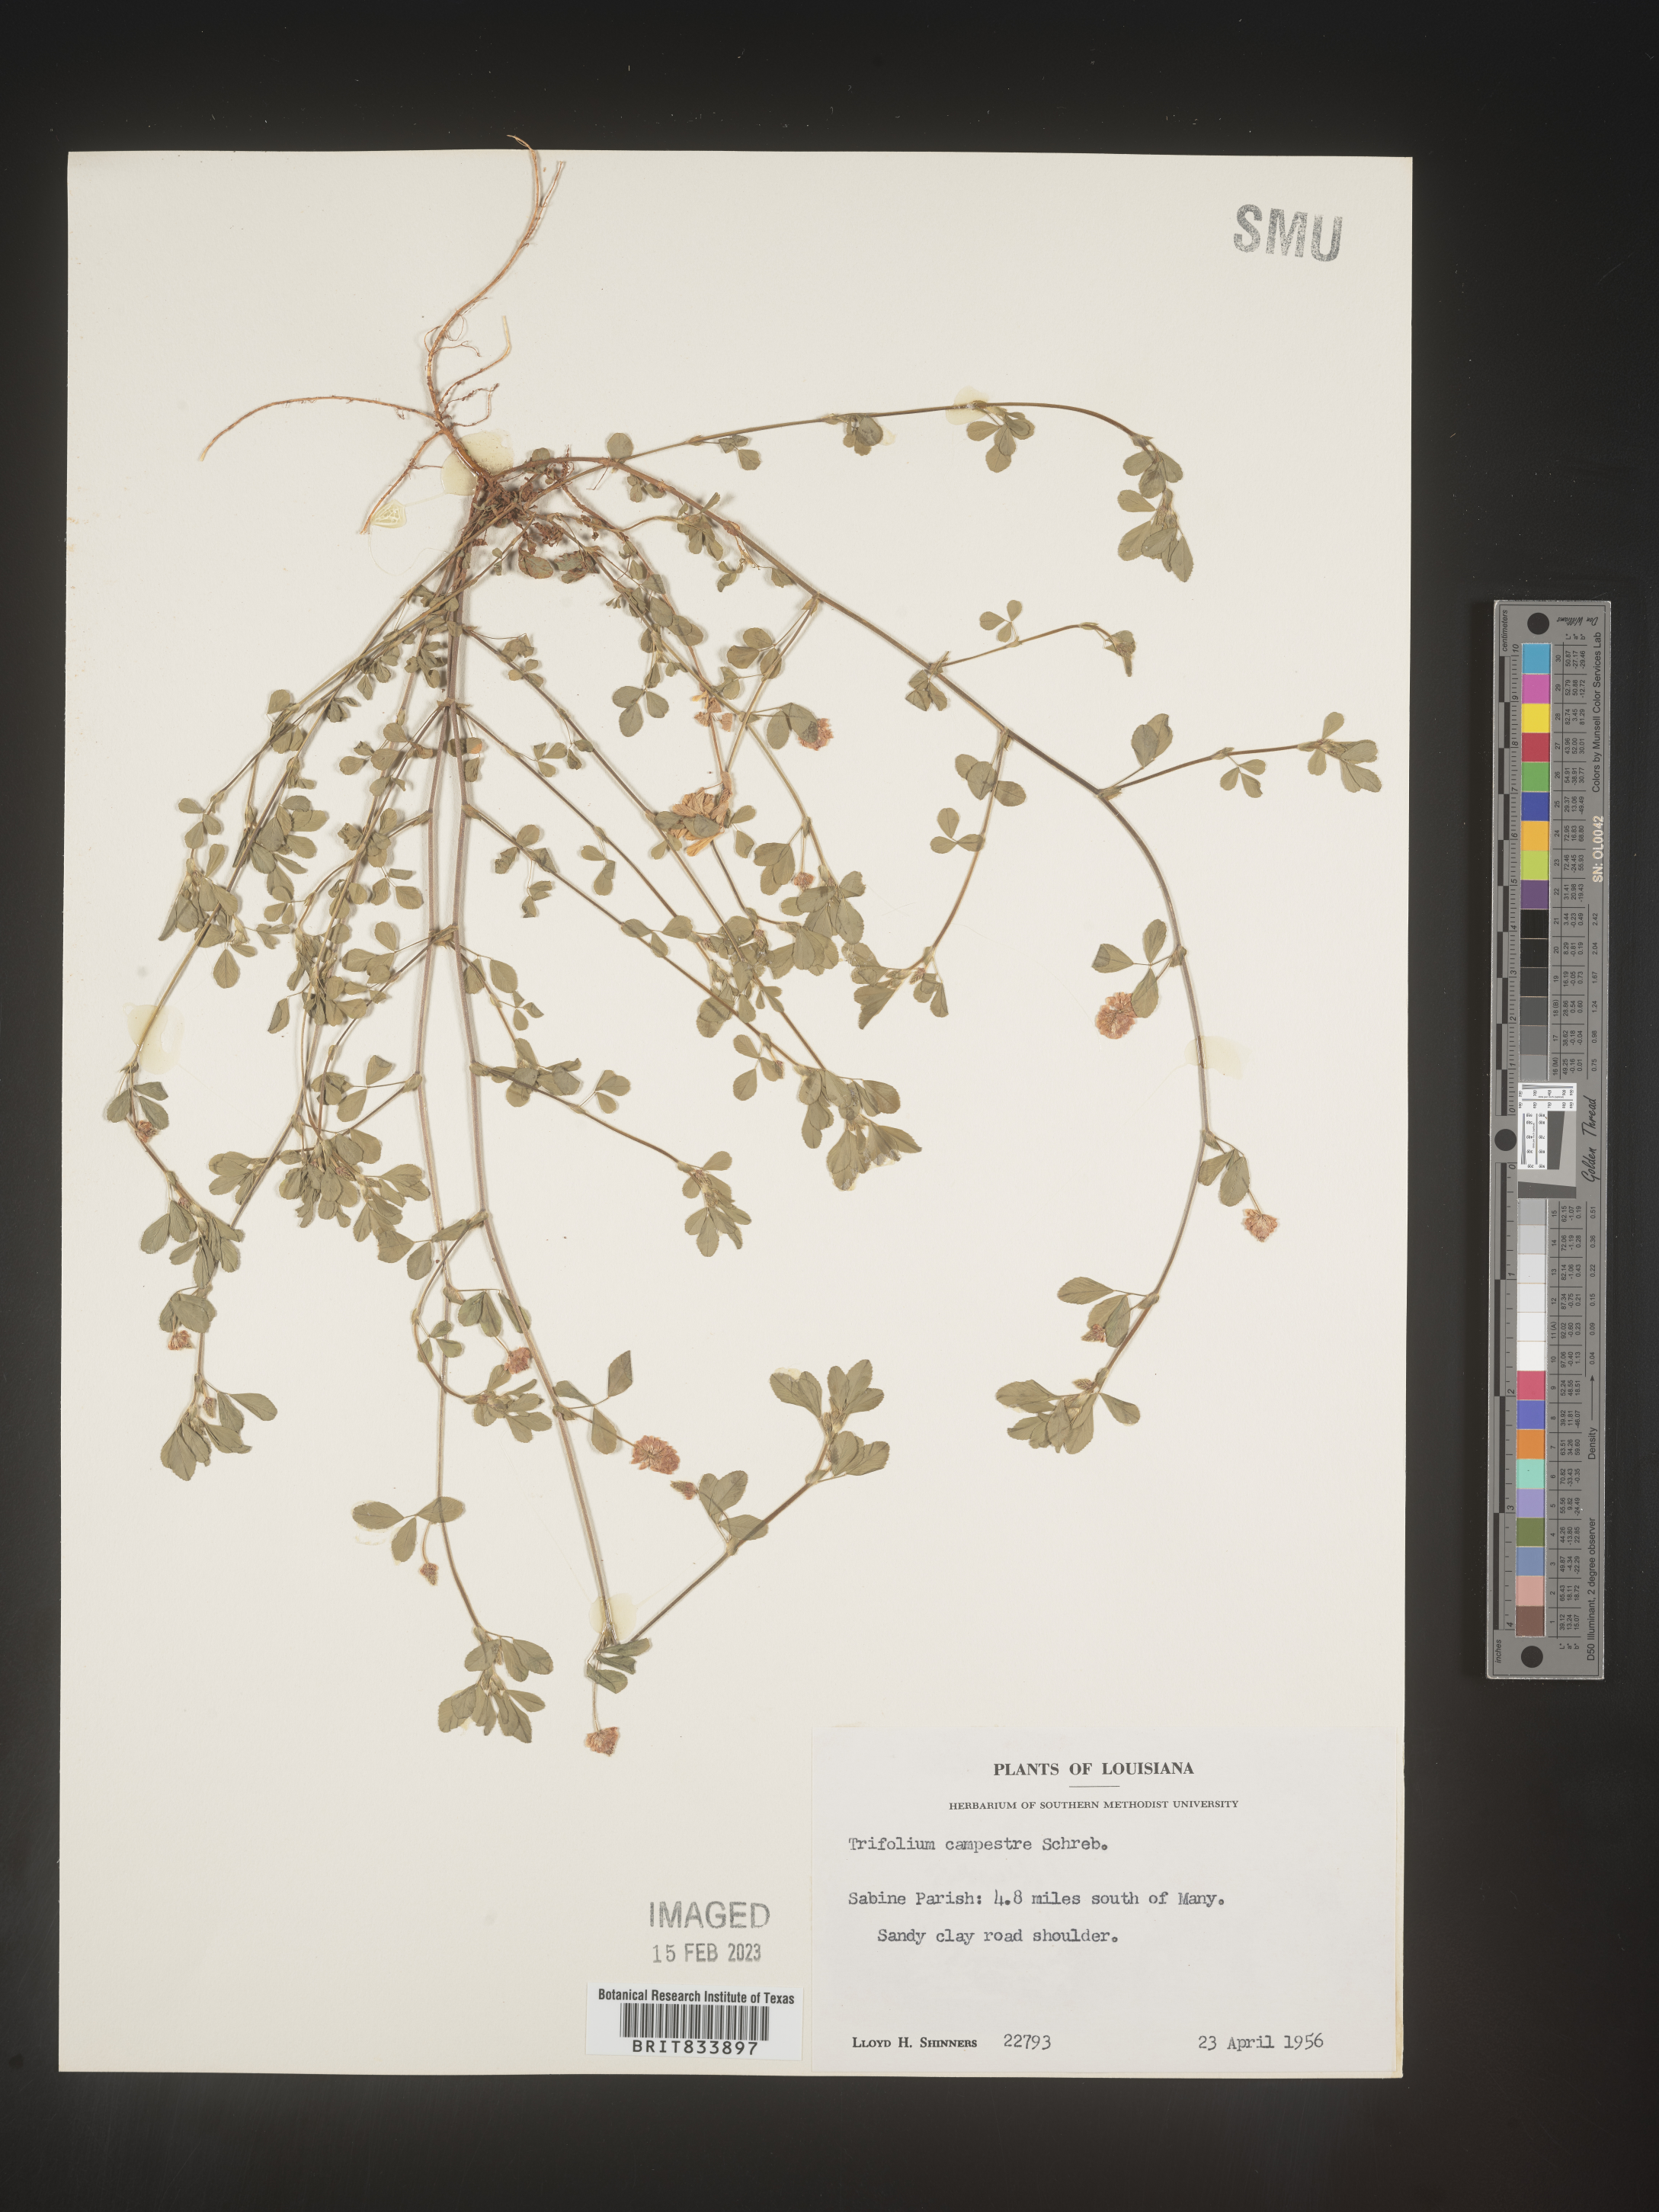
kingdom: Plantae
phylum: Tracheophyta
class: Magnoliopsida
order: Fabales
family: Fabaceae
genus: Trifolium
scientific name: Trifolium campestre
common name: Field clover
